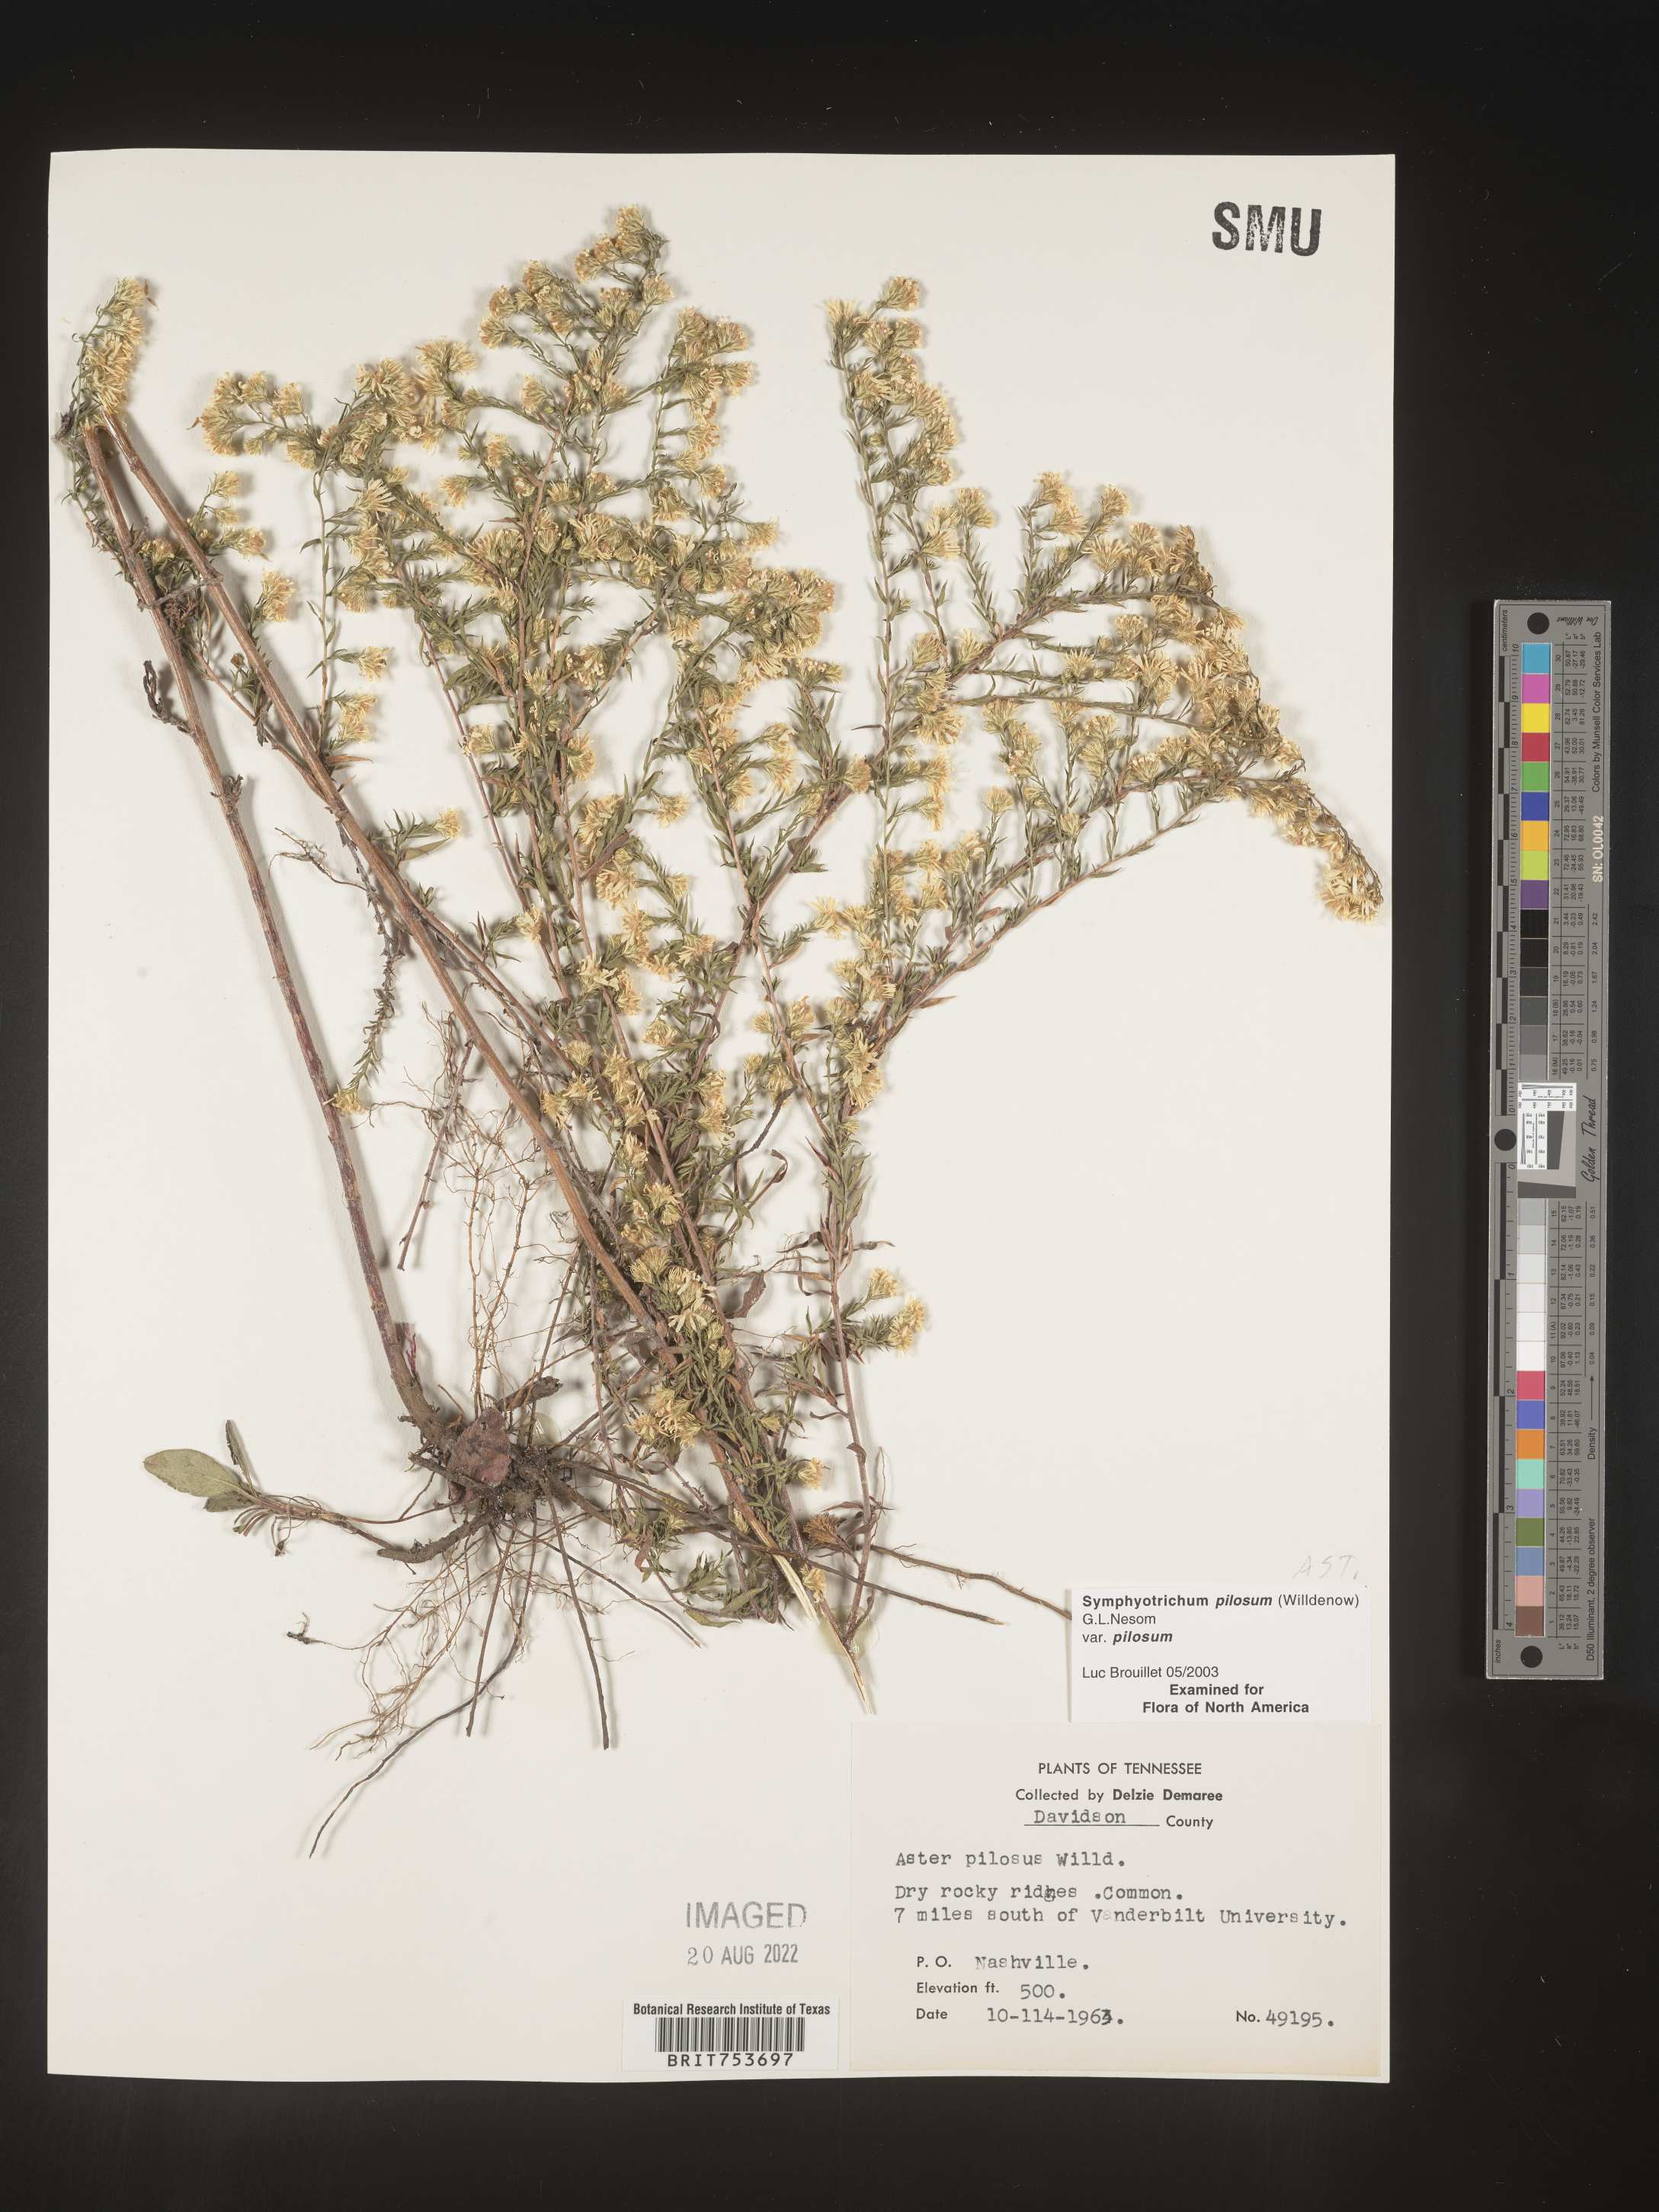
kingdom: Plantae
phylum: Tracheophyta
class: Magnoliopsida
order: Asterales
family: Asteraceae
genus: Symphyotrichum
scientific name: Symphyotrichum pilosum
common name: Awl aster
